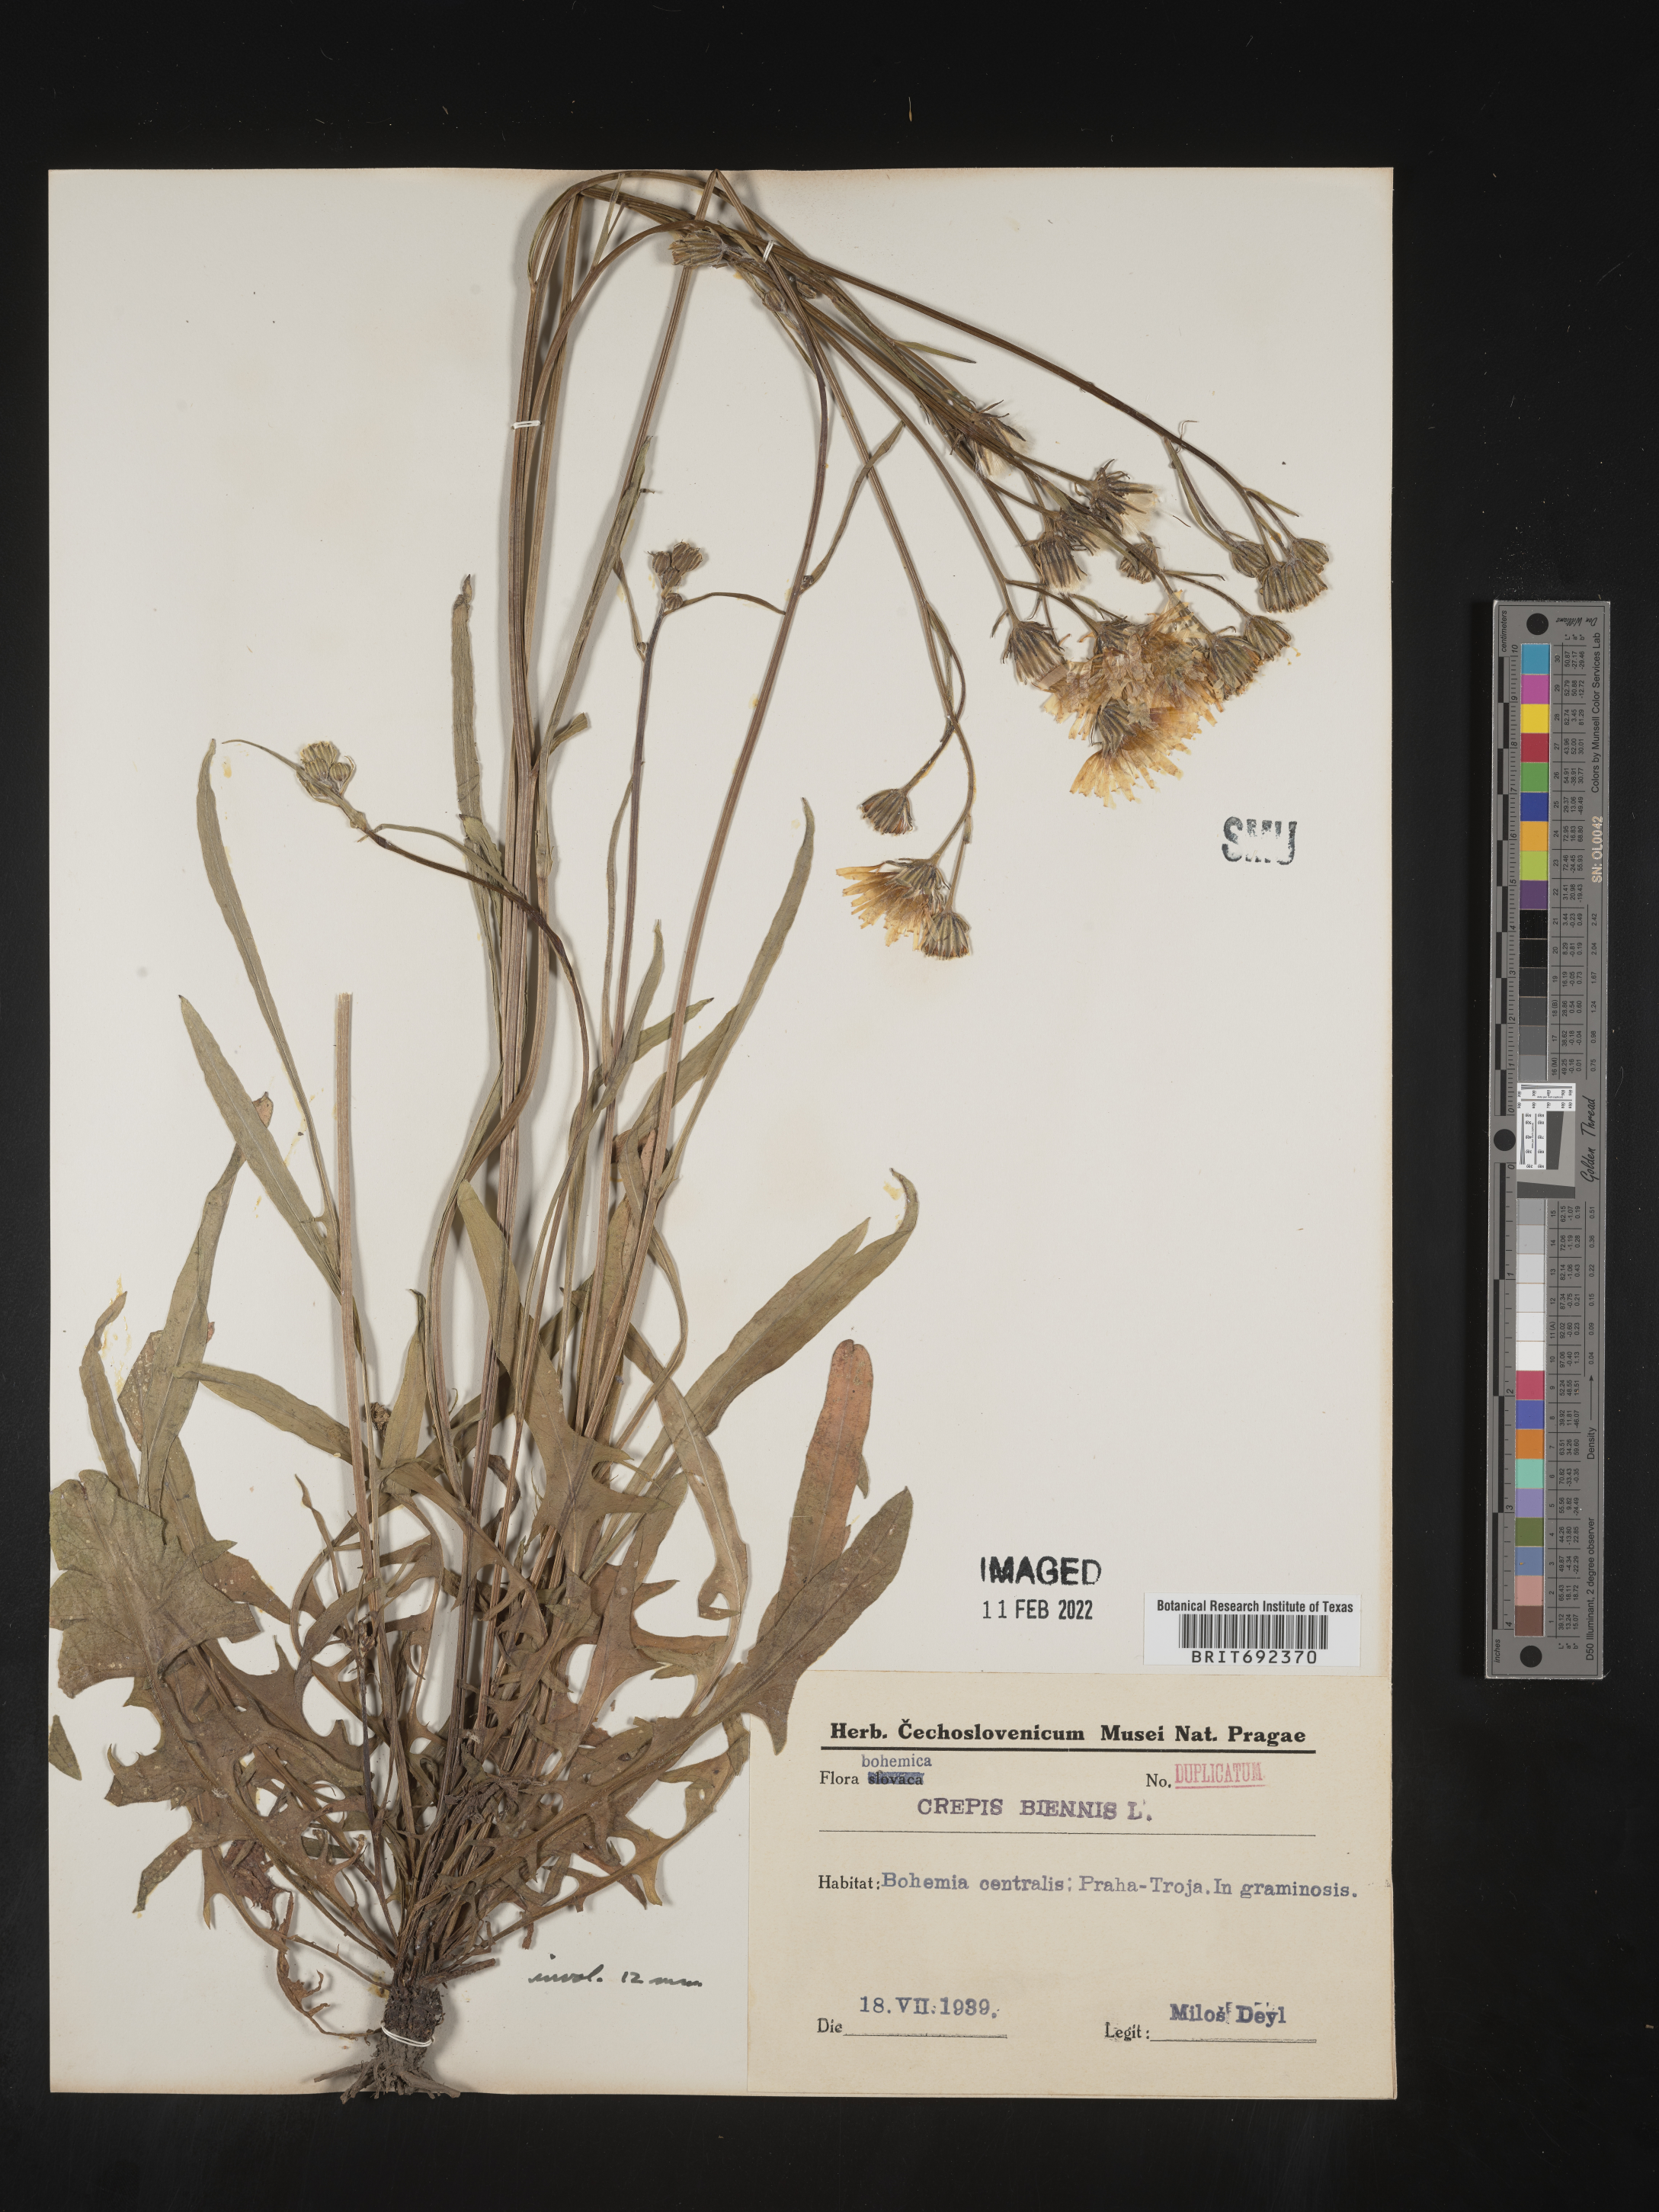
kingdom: Plantae
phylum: Tracheophyta
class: Magnoliopsida
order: Asterales
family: Asteraceae
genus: Crepis
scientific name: Crepis
